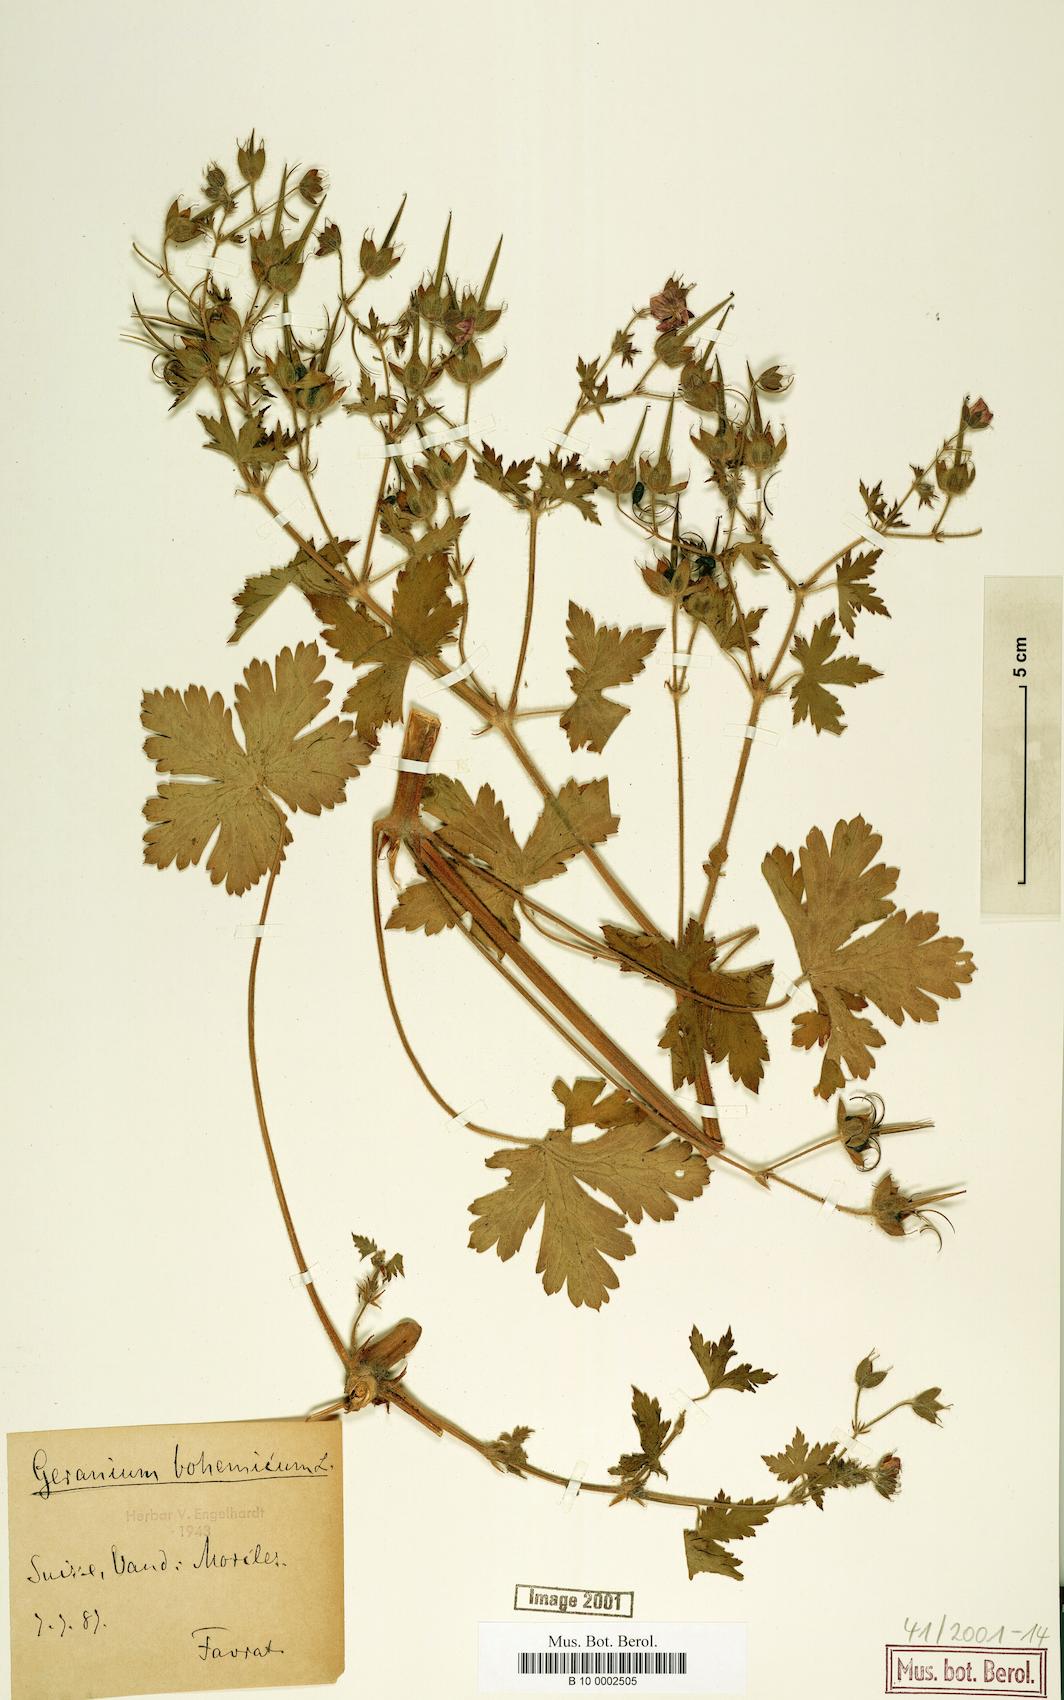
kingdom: Plantae
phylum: Tracheophyta
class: Magnoliopsida
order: Geraniales
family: Geraniaceae
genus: Geranium
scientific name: Geranium bohemicum
